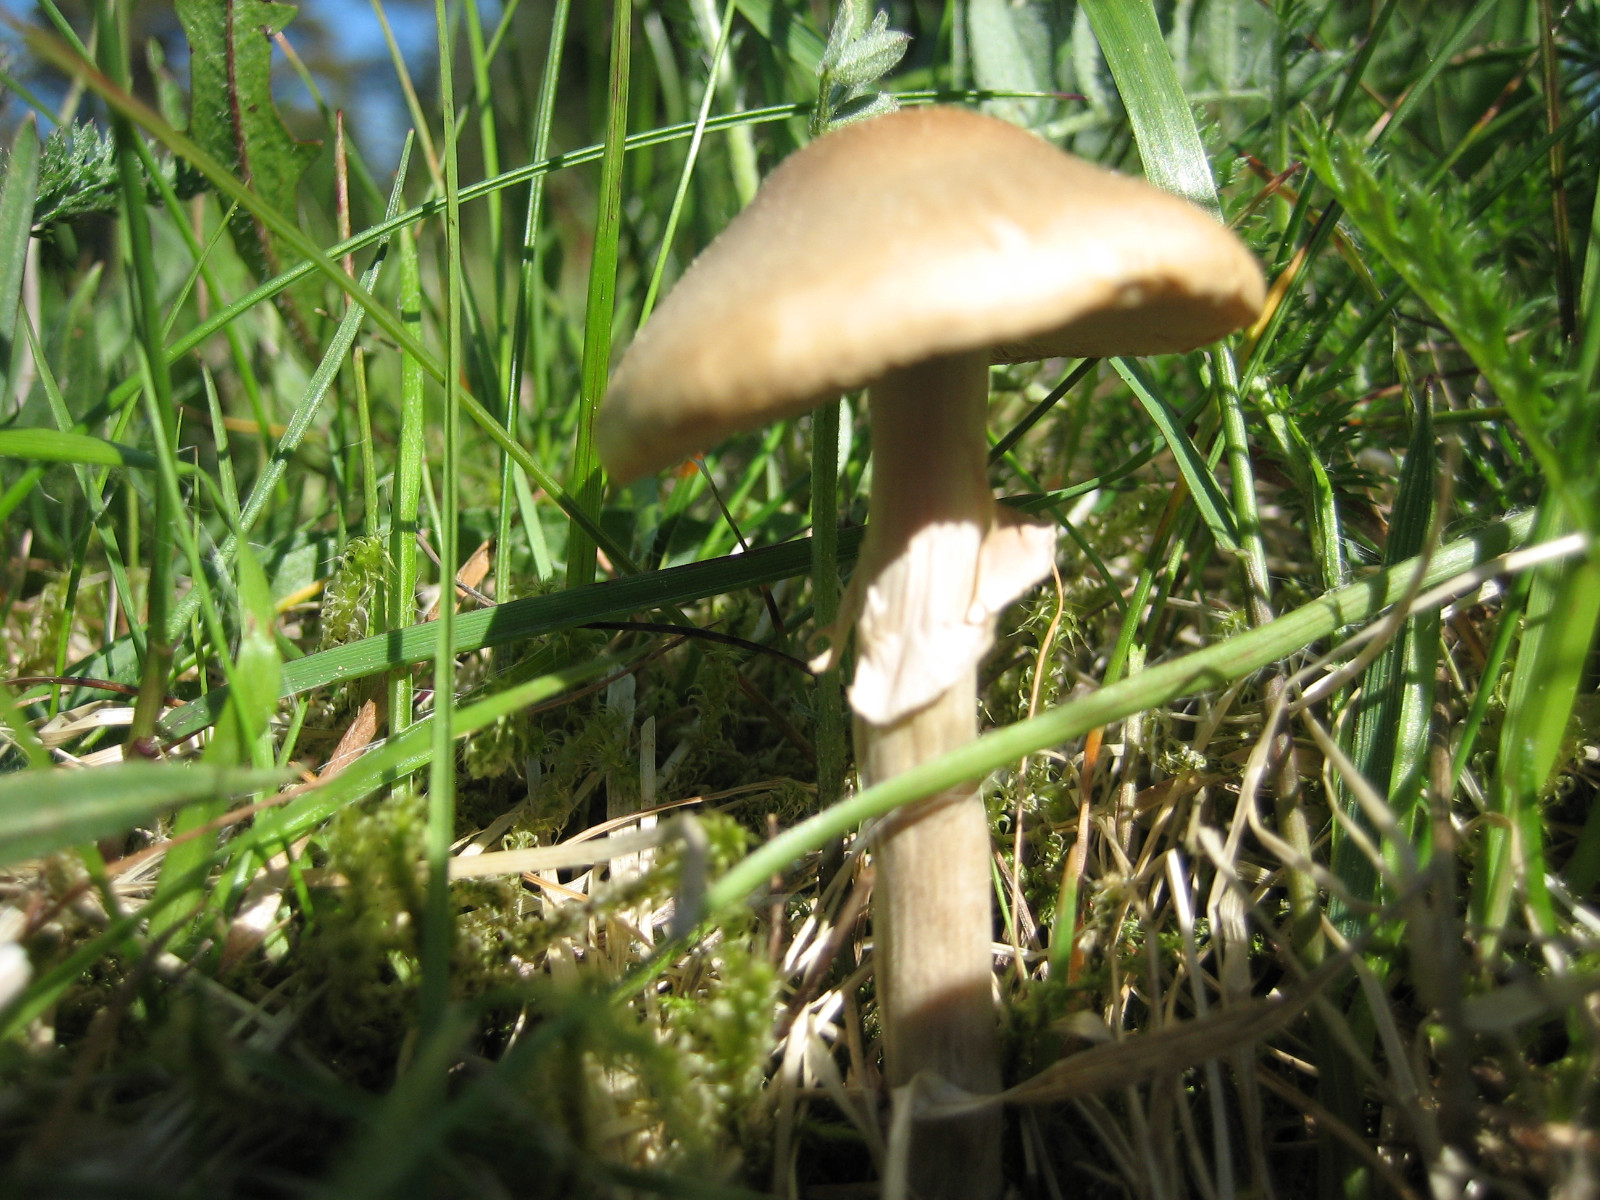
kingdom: Fungi
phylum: Basidiomycota
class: Agaricomycetes
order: Agaricales
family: Strophariaceae
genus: Agrocybe
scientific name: Agrocybe praecox
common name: tidlig agerhat
